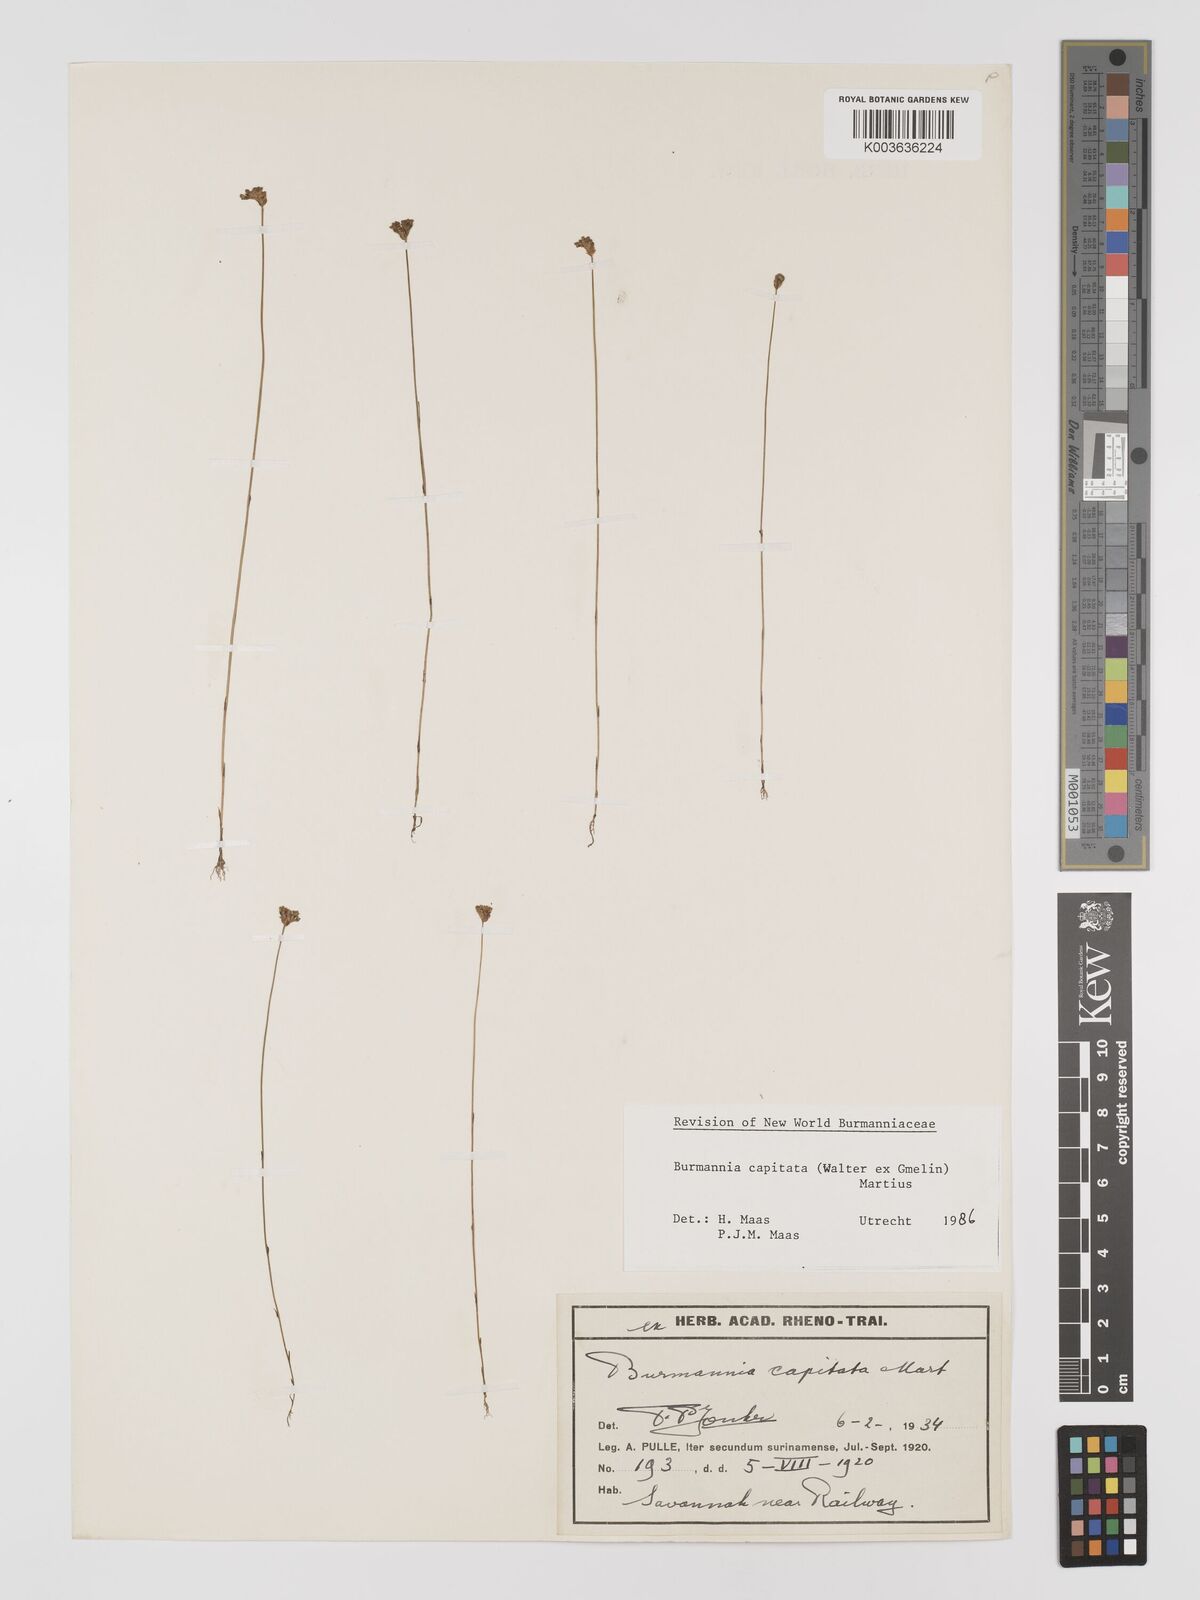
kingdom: Plantae
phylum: Tracheophyta
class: Liliopsida
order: Dioscoreales
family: Burmanniaceae
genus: Burmannia
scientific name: Burmannia capitata
